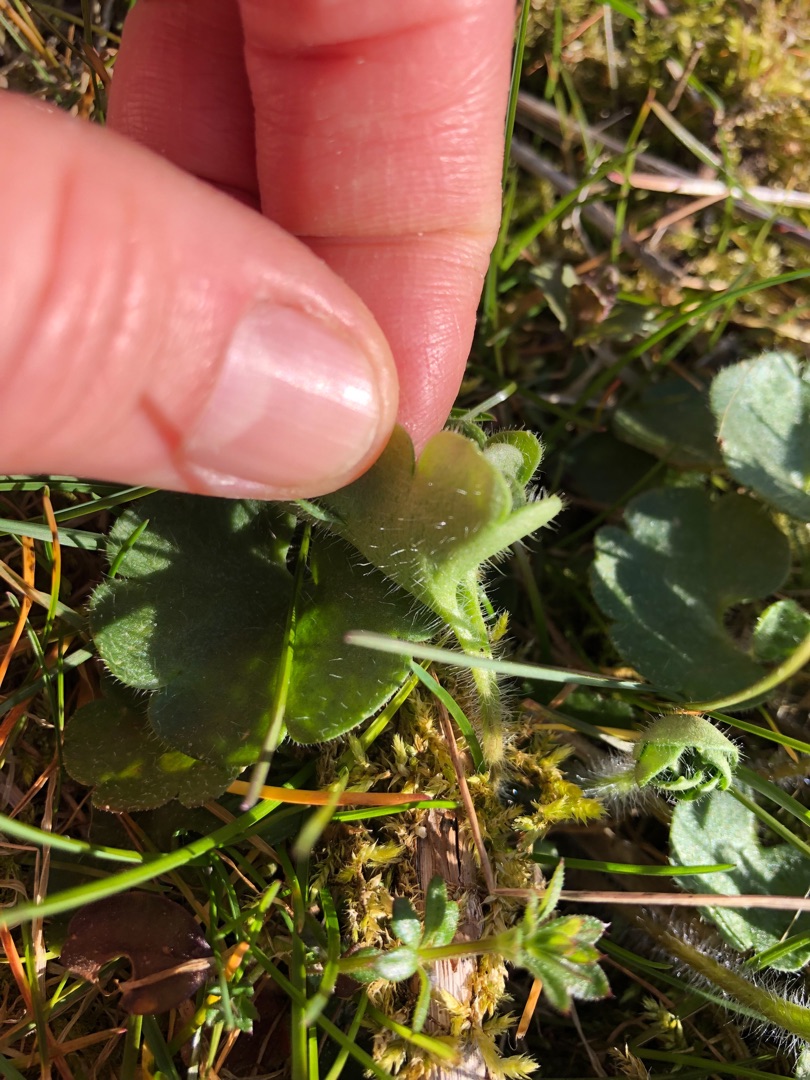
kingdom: Plantae
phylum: Tracheophyta
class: Magnoliopsida
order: Saxifragales
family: Saxifragaceae
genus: Saxifraga
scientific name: Saxifraga granulata
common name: Kornet stenbræk
